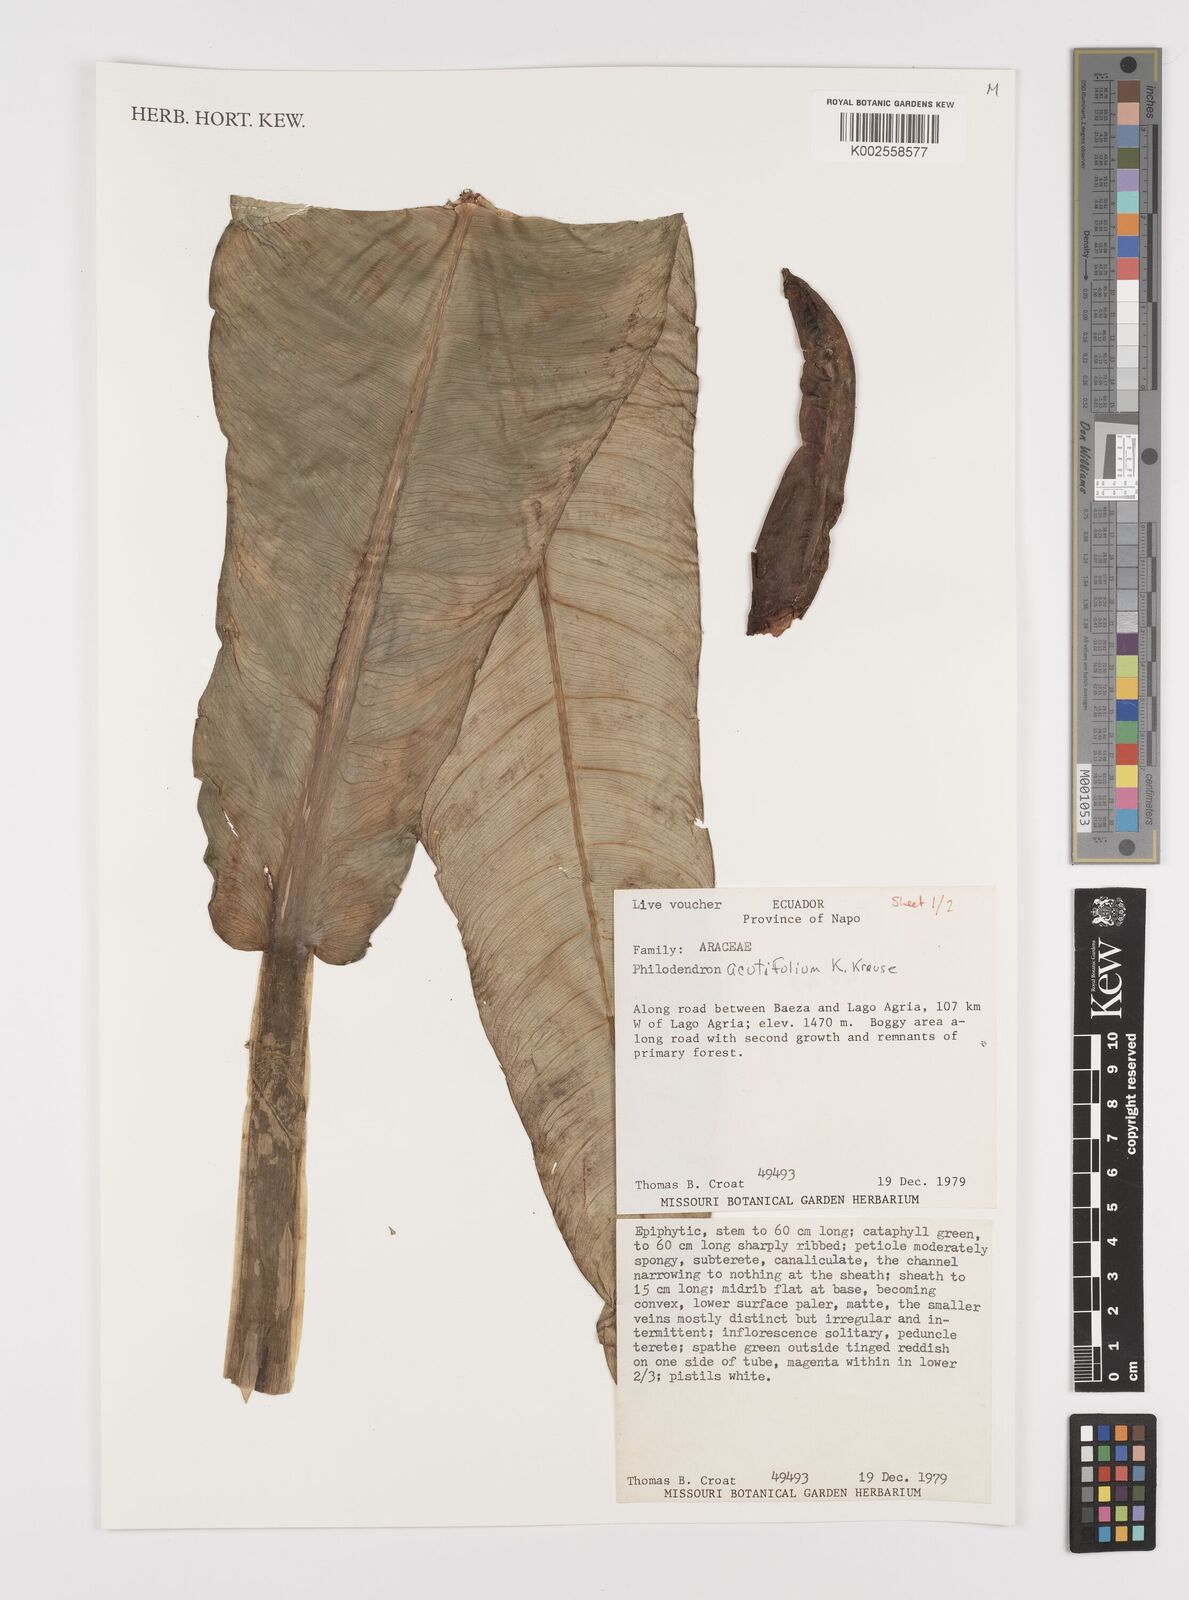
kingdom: Plantae
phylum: Tracheophyta
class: Liliopsida
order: Alismatales
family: Araceae
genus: Philodendron
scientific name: Philodendron acutifolium
